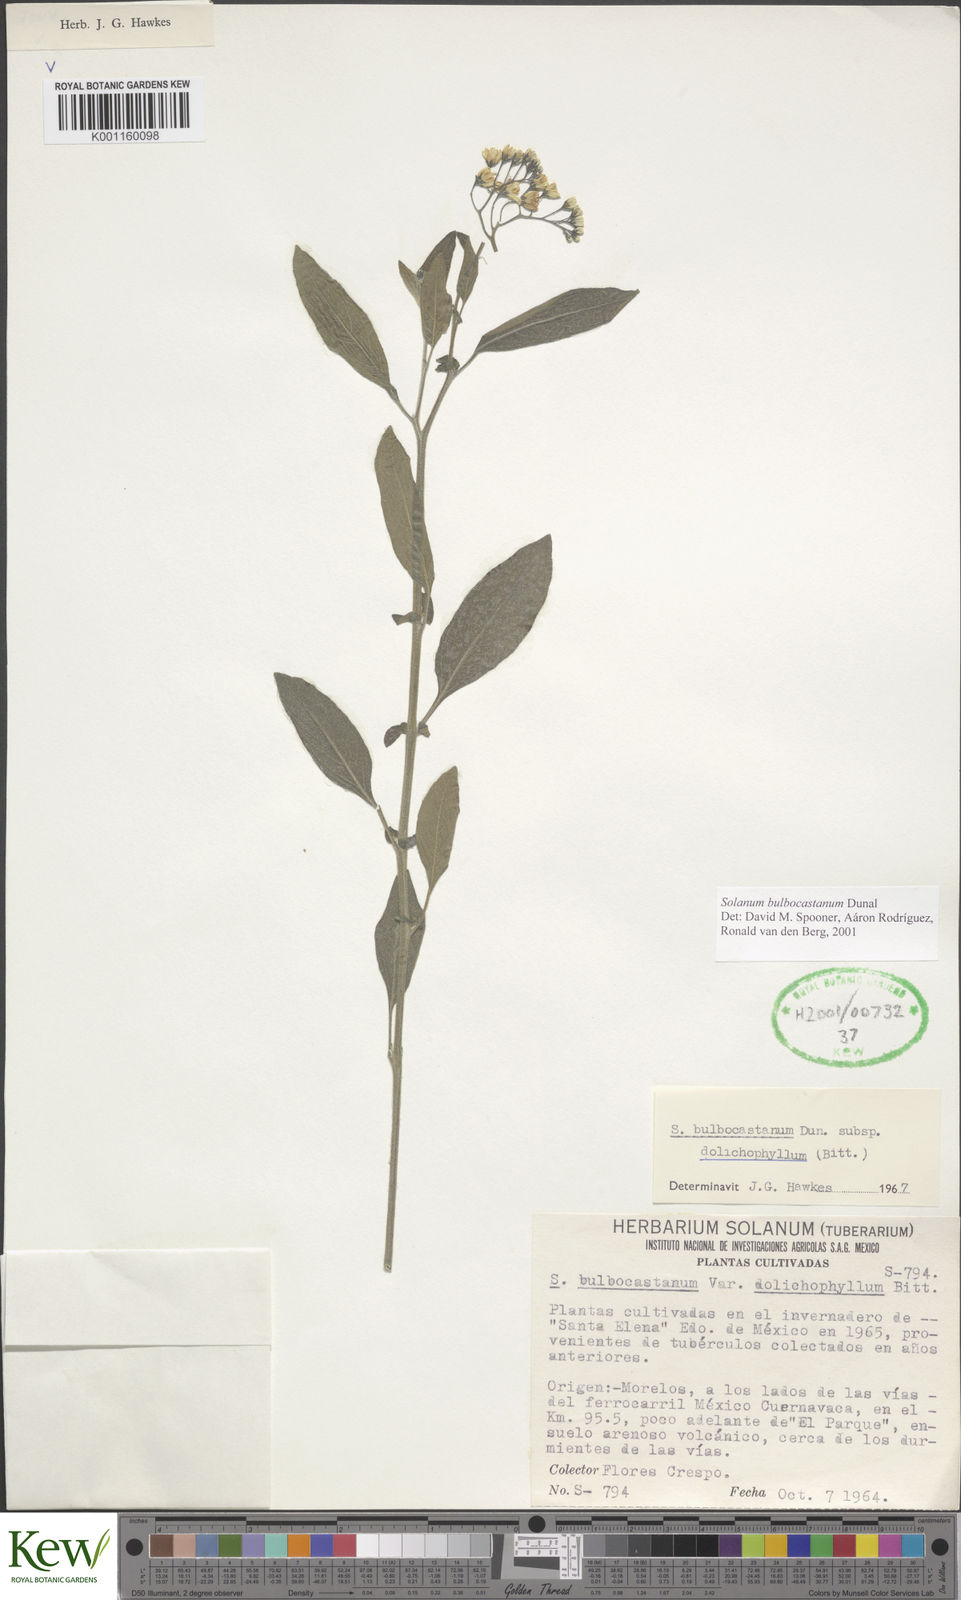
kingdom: Plantae
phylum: Tracheophyta
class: Magnoliopsida
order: Solanales
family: Solanaceae
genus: Solanum
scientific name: Solanum bulbocastanum
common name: Ornamental nightshade
